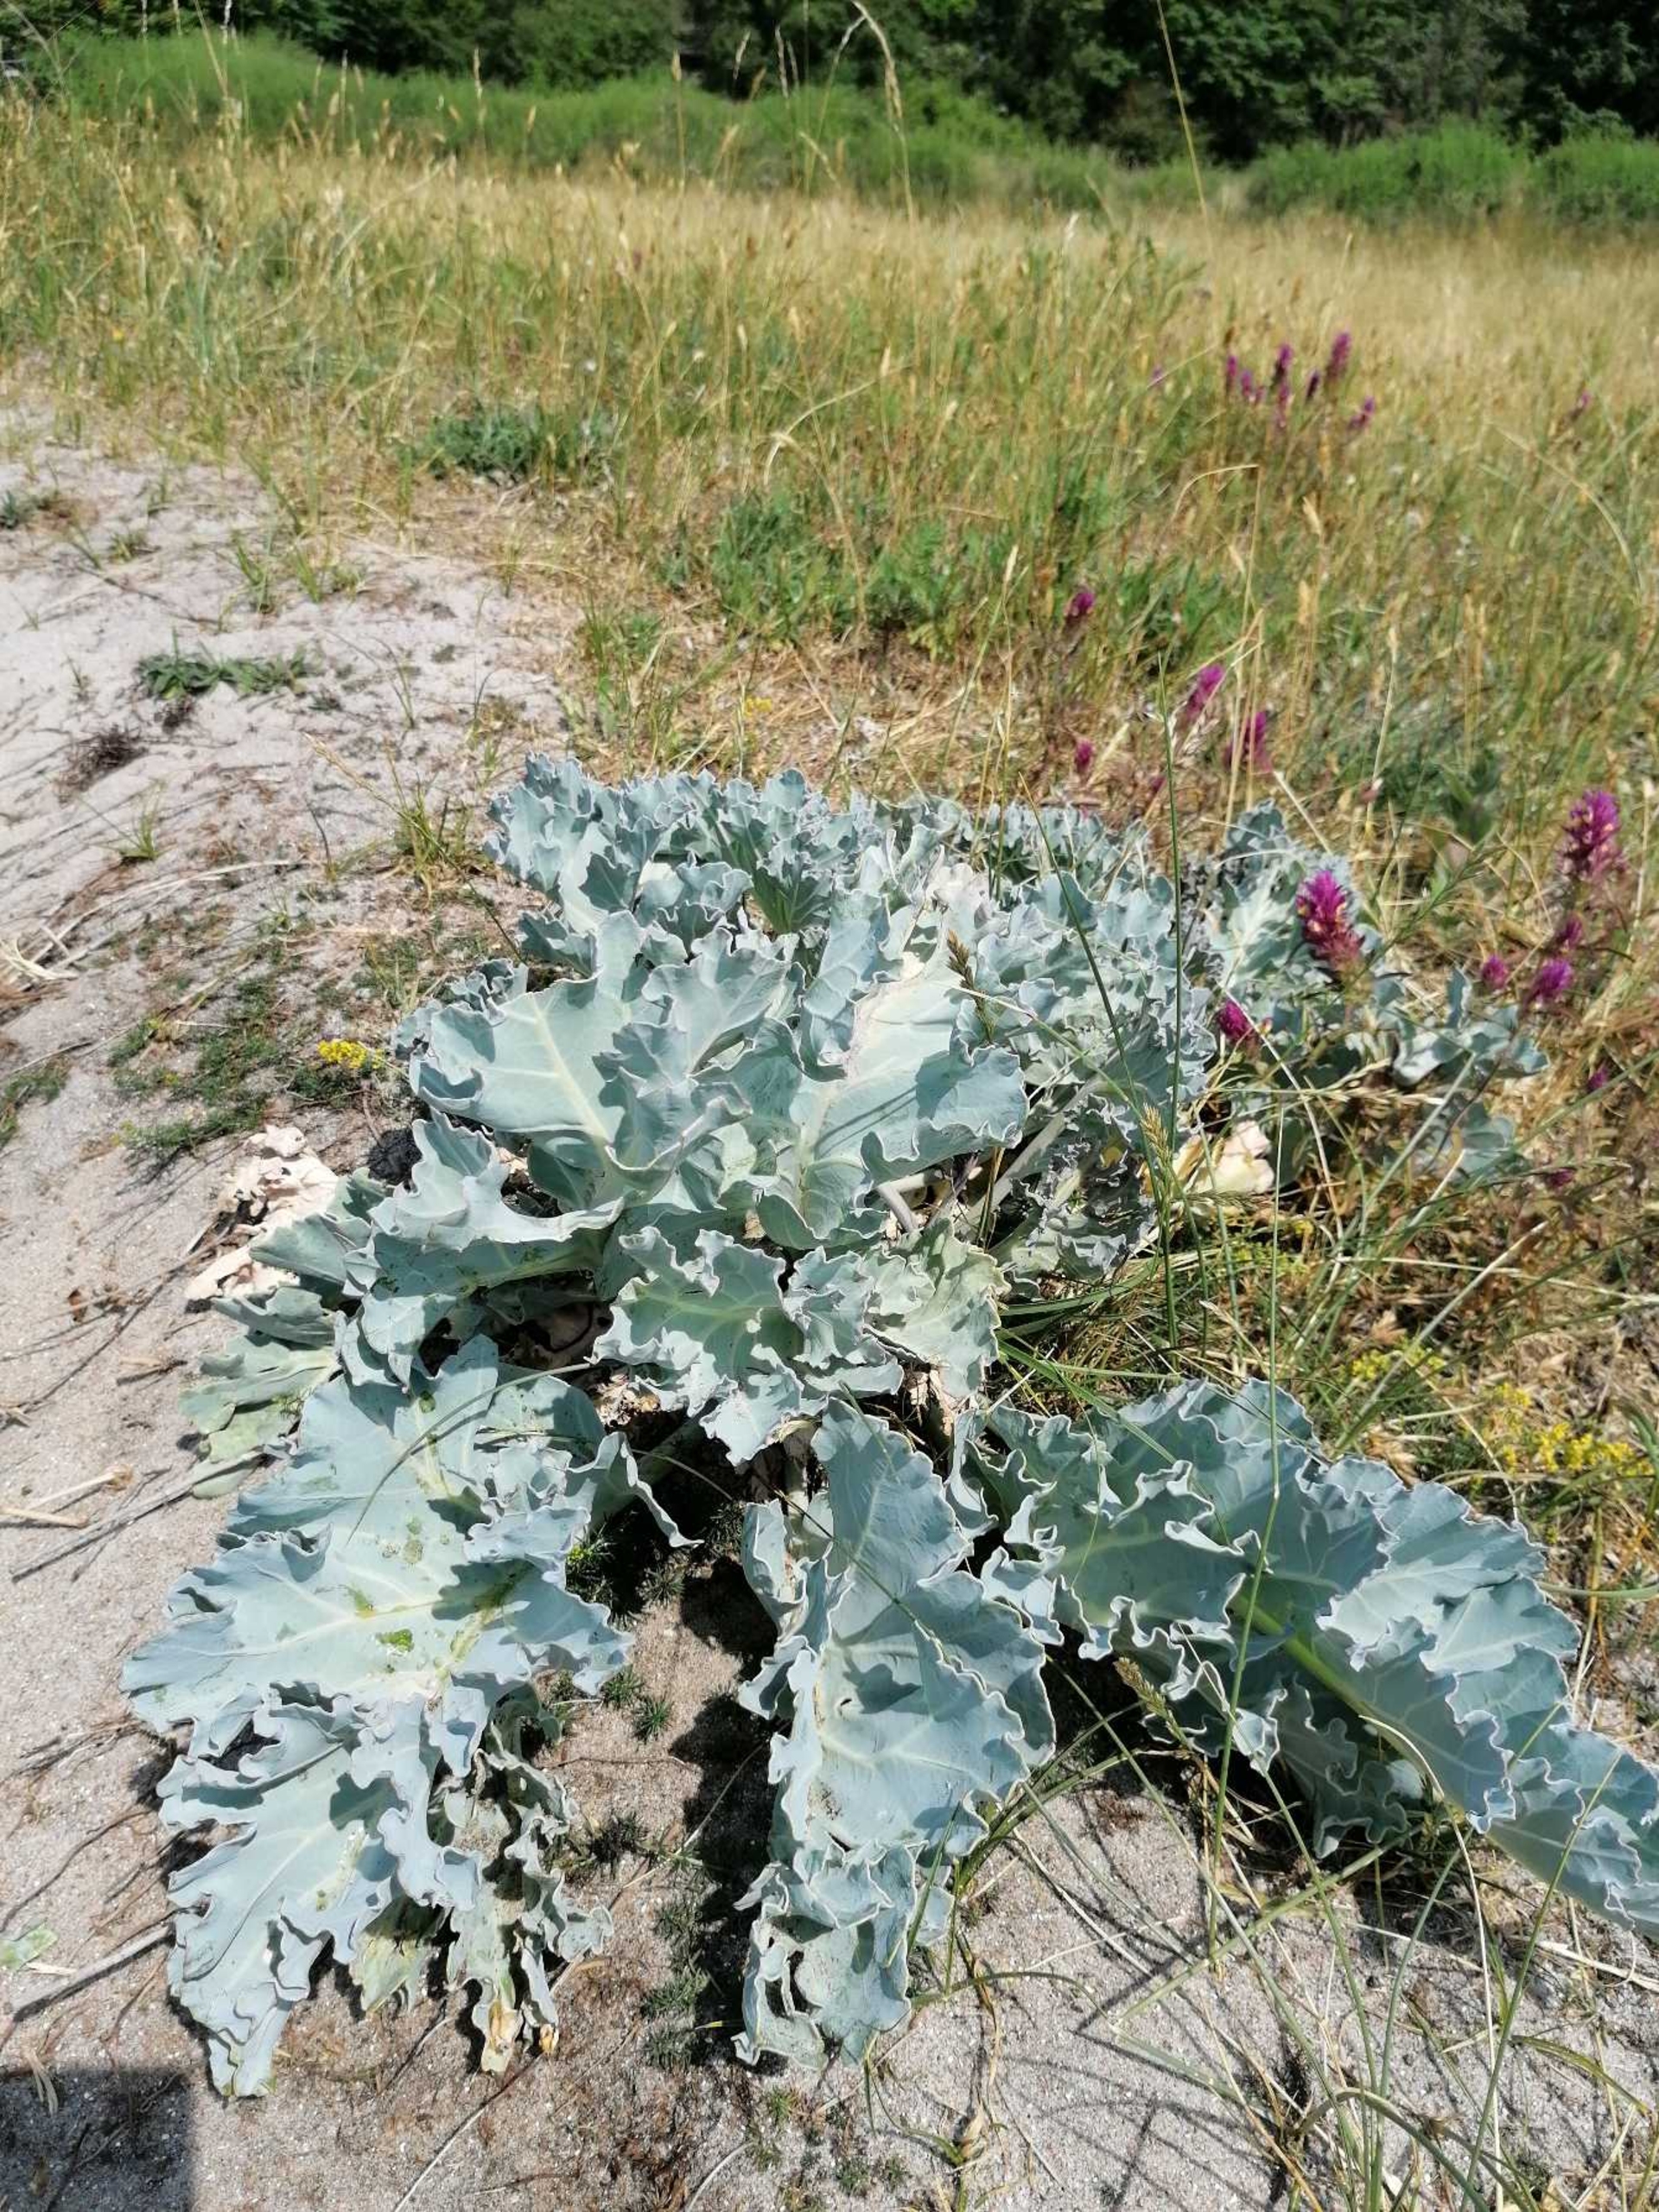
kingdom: Plantae
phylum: Tracheophyta
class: Magnoliopsida
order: Brassicales
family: Brassicaceae
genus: Crambe
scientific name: Crambe maritima
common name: Strandkål
